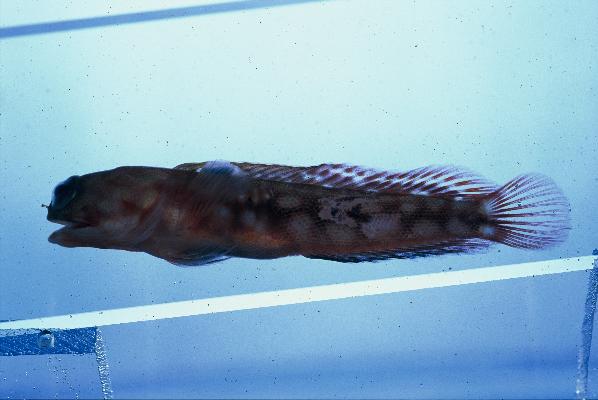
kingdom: Animalia
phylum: Chordata
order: Perciformes
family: Opistognathidae
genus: Opistognathus
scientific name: Opistognathus margaretae
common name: Halfscaled jawfish
